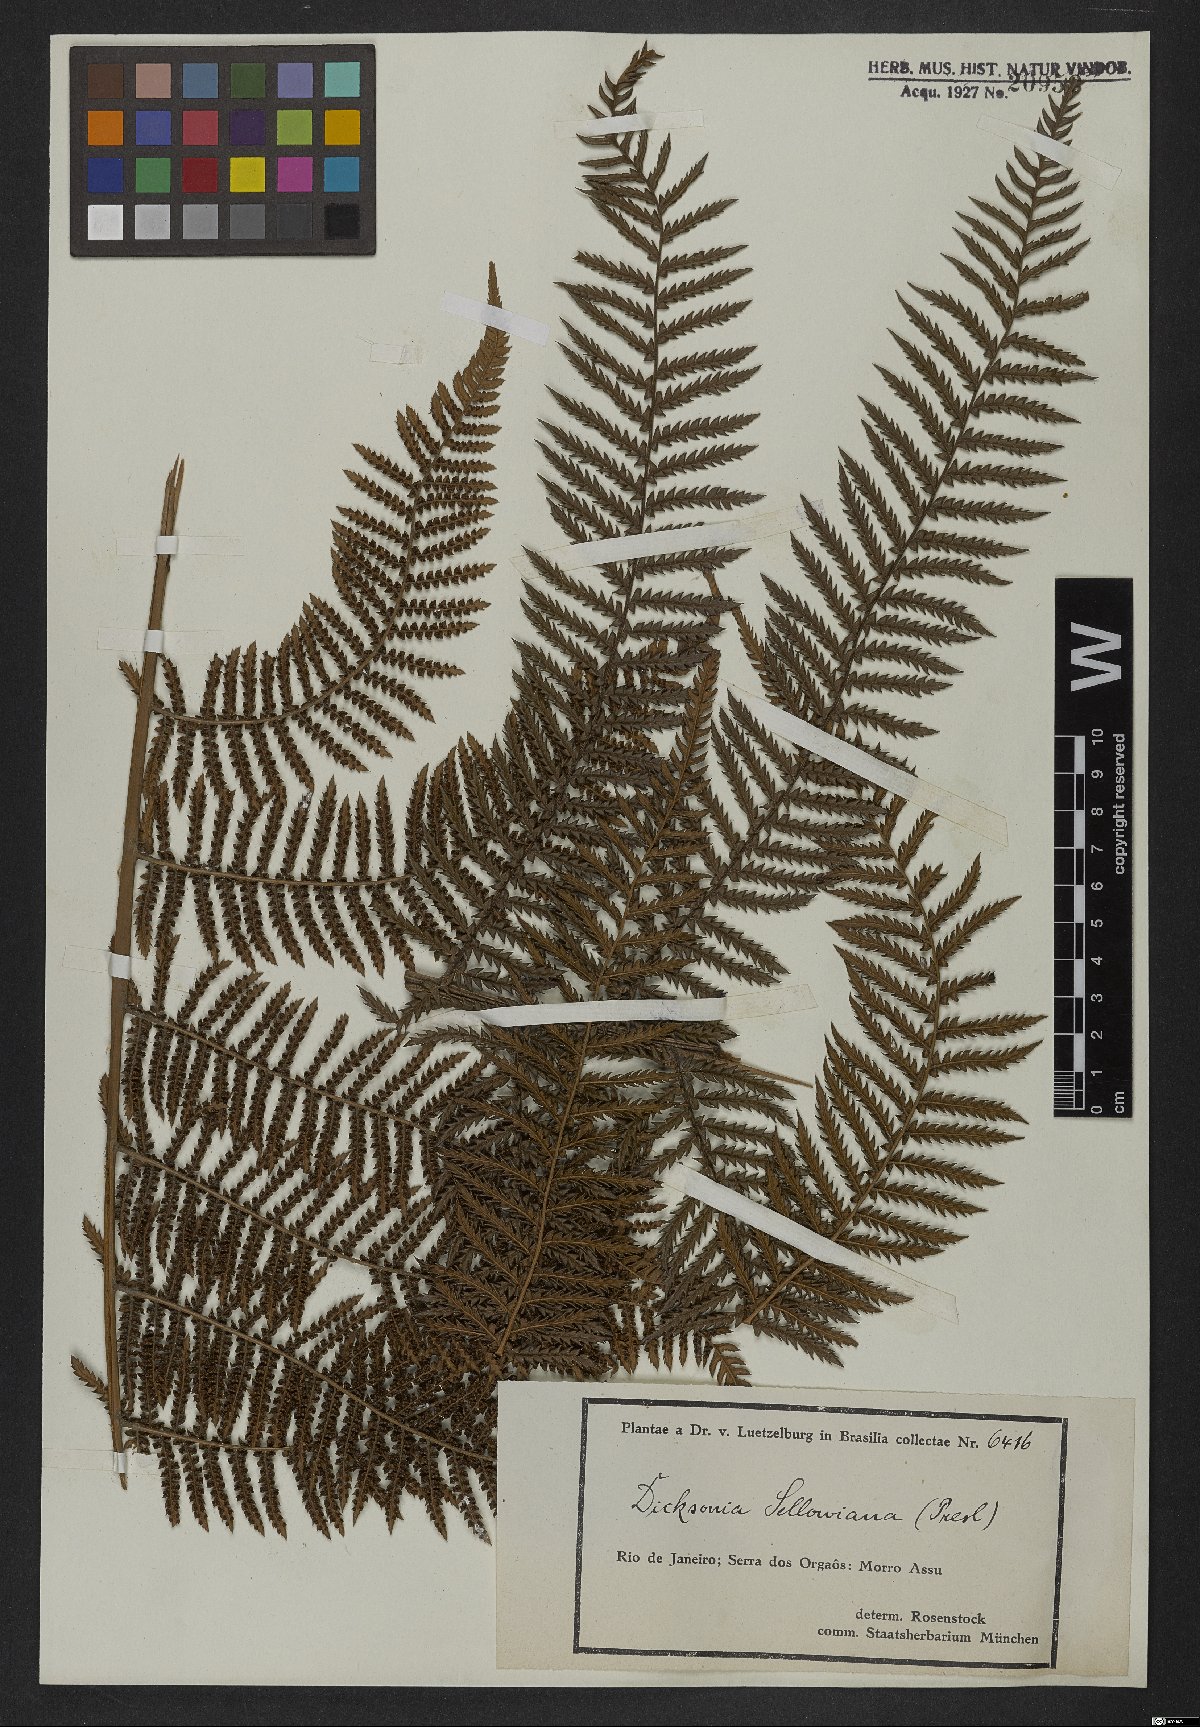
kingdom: Plantae
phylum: Tracheophyta
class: Polypodiopsida
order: Cyatheales
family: Dicksoniaceae
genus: Dicksonia
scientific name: Dicksonia sellowiana
